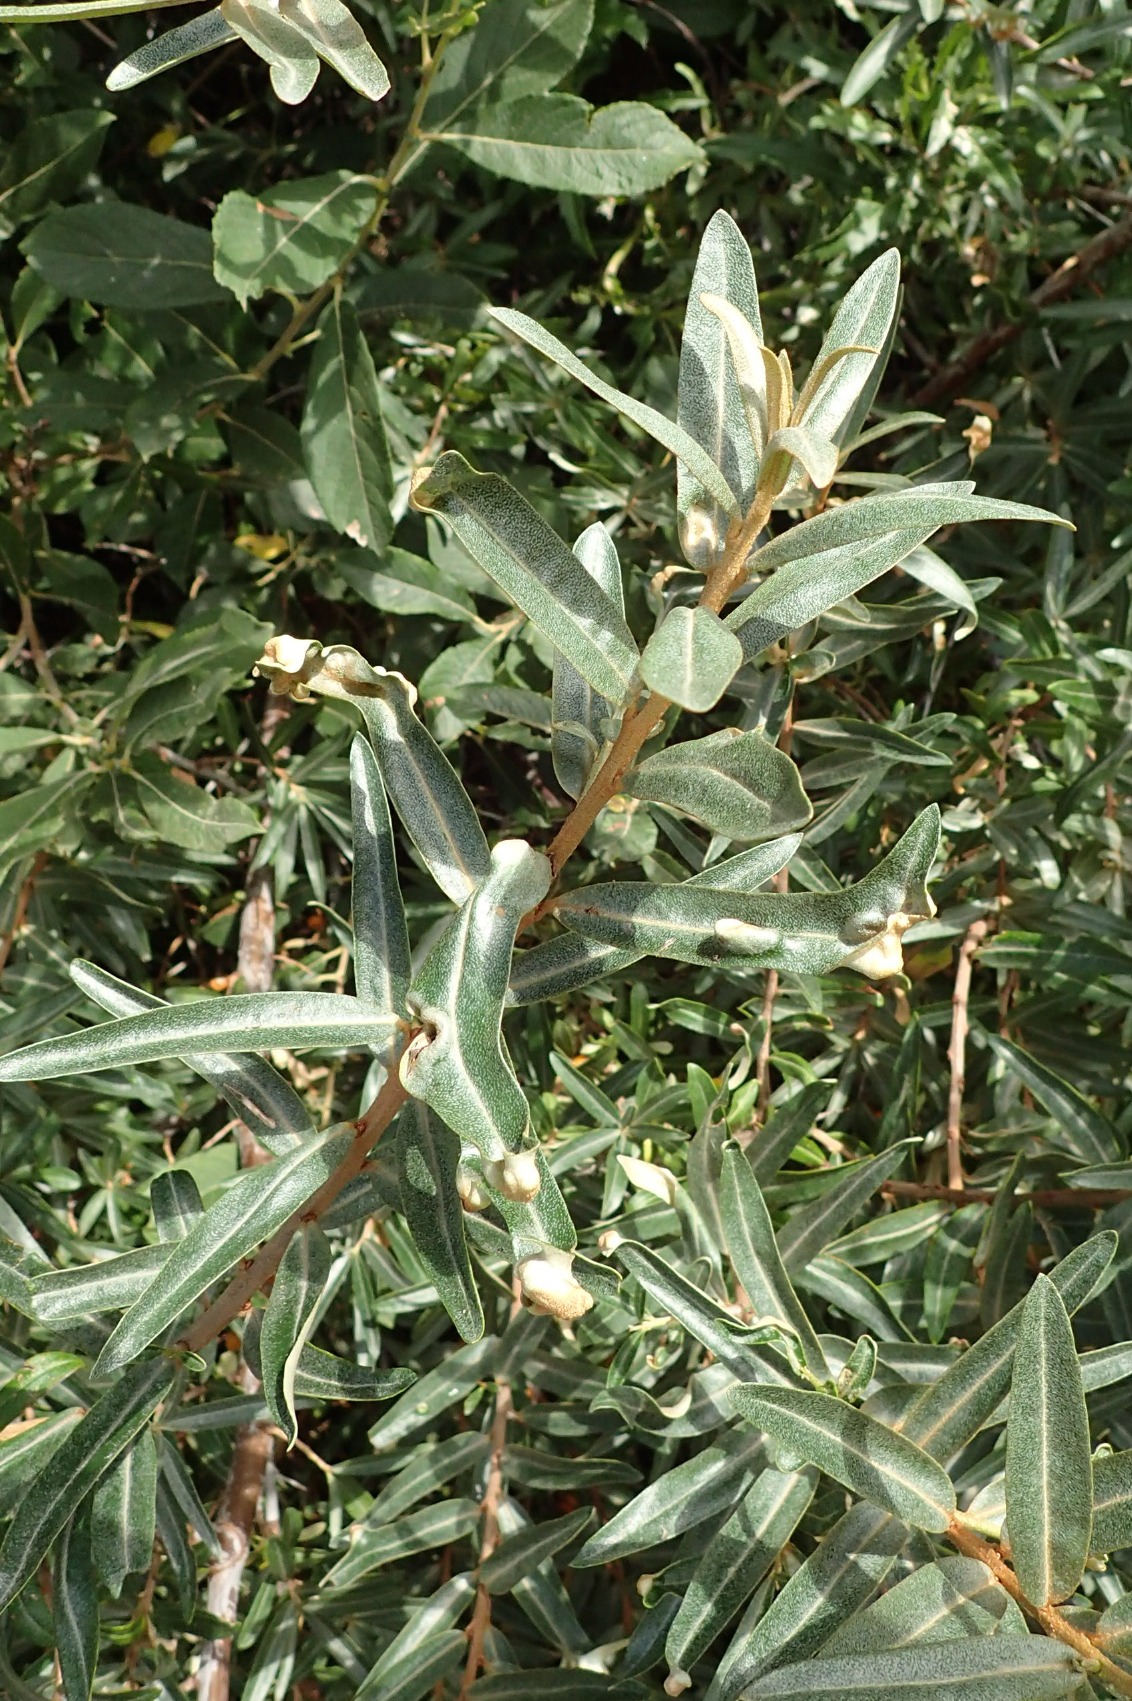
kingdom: Animalia
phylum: Arthropoda
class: Arachnida
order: Trombidiformes
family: Eriophyidae
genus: Aceria
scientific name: Aceria hippophaena
